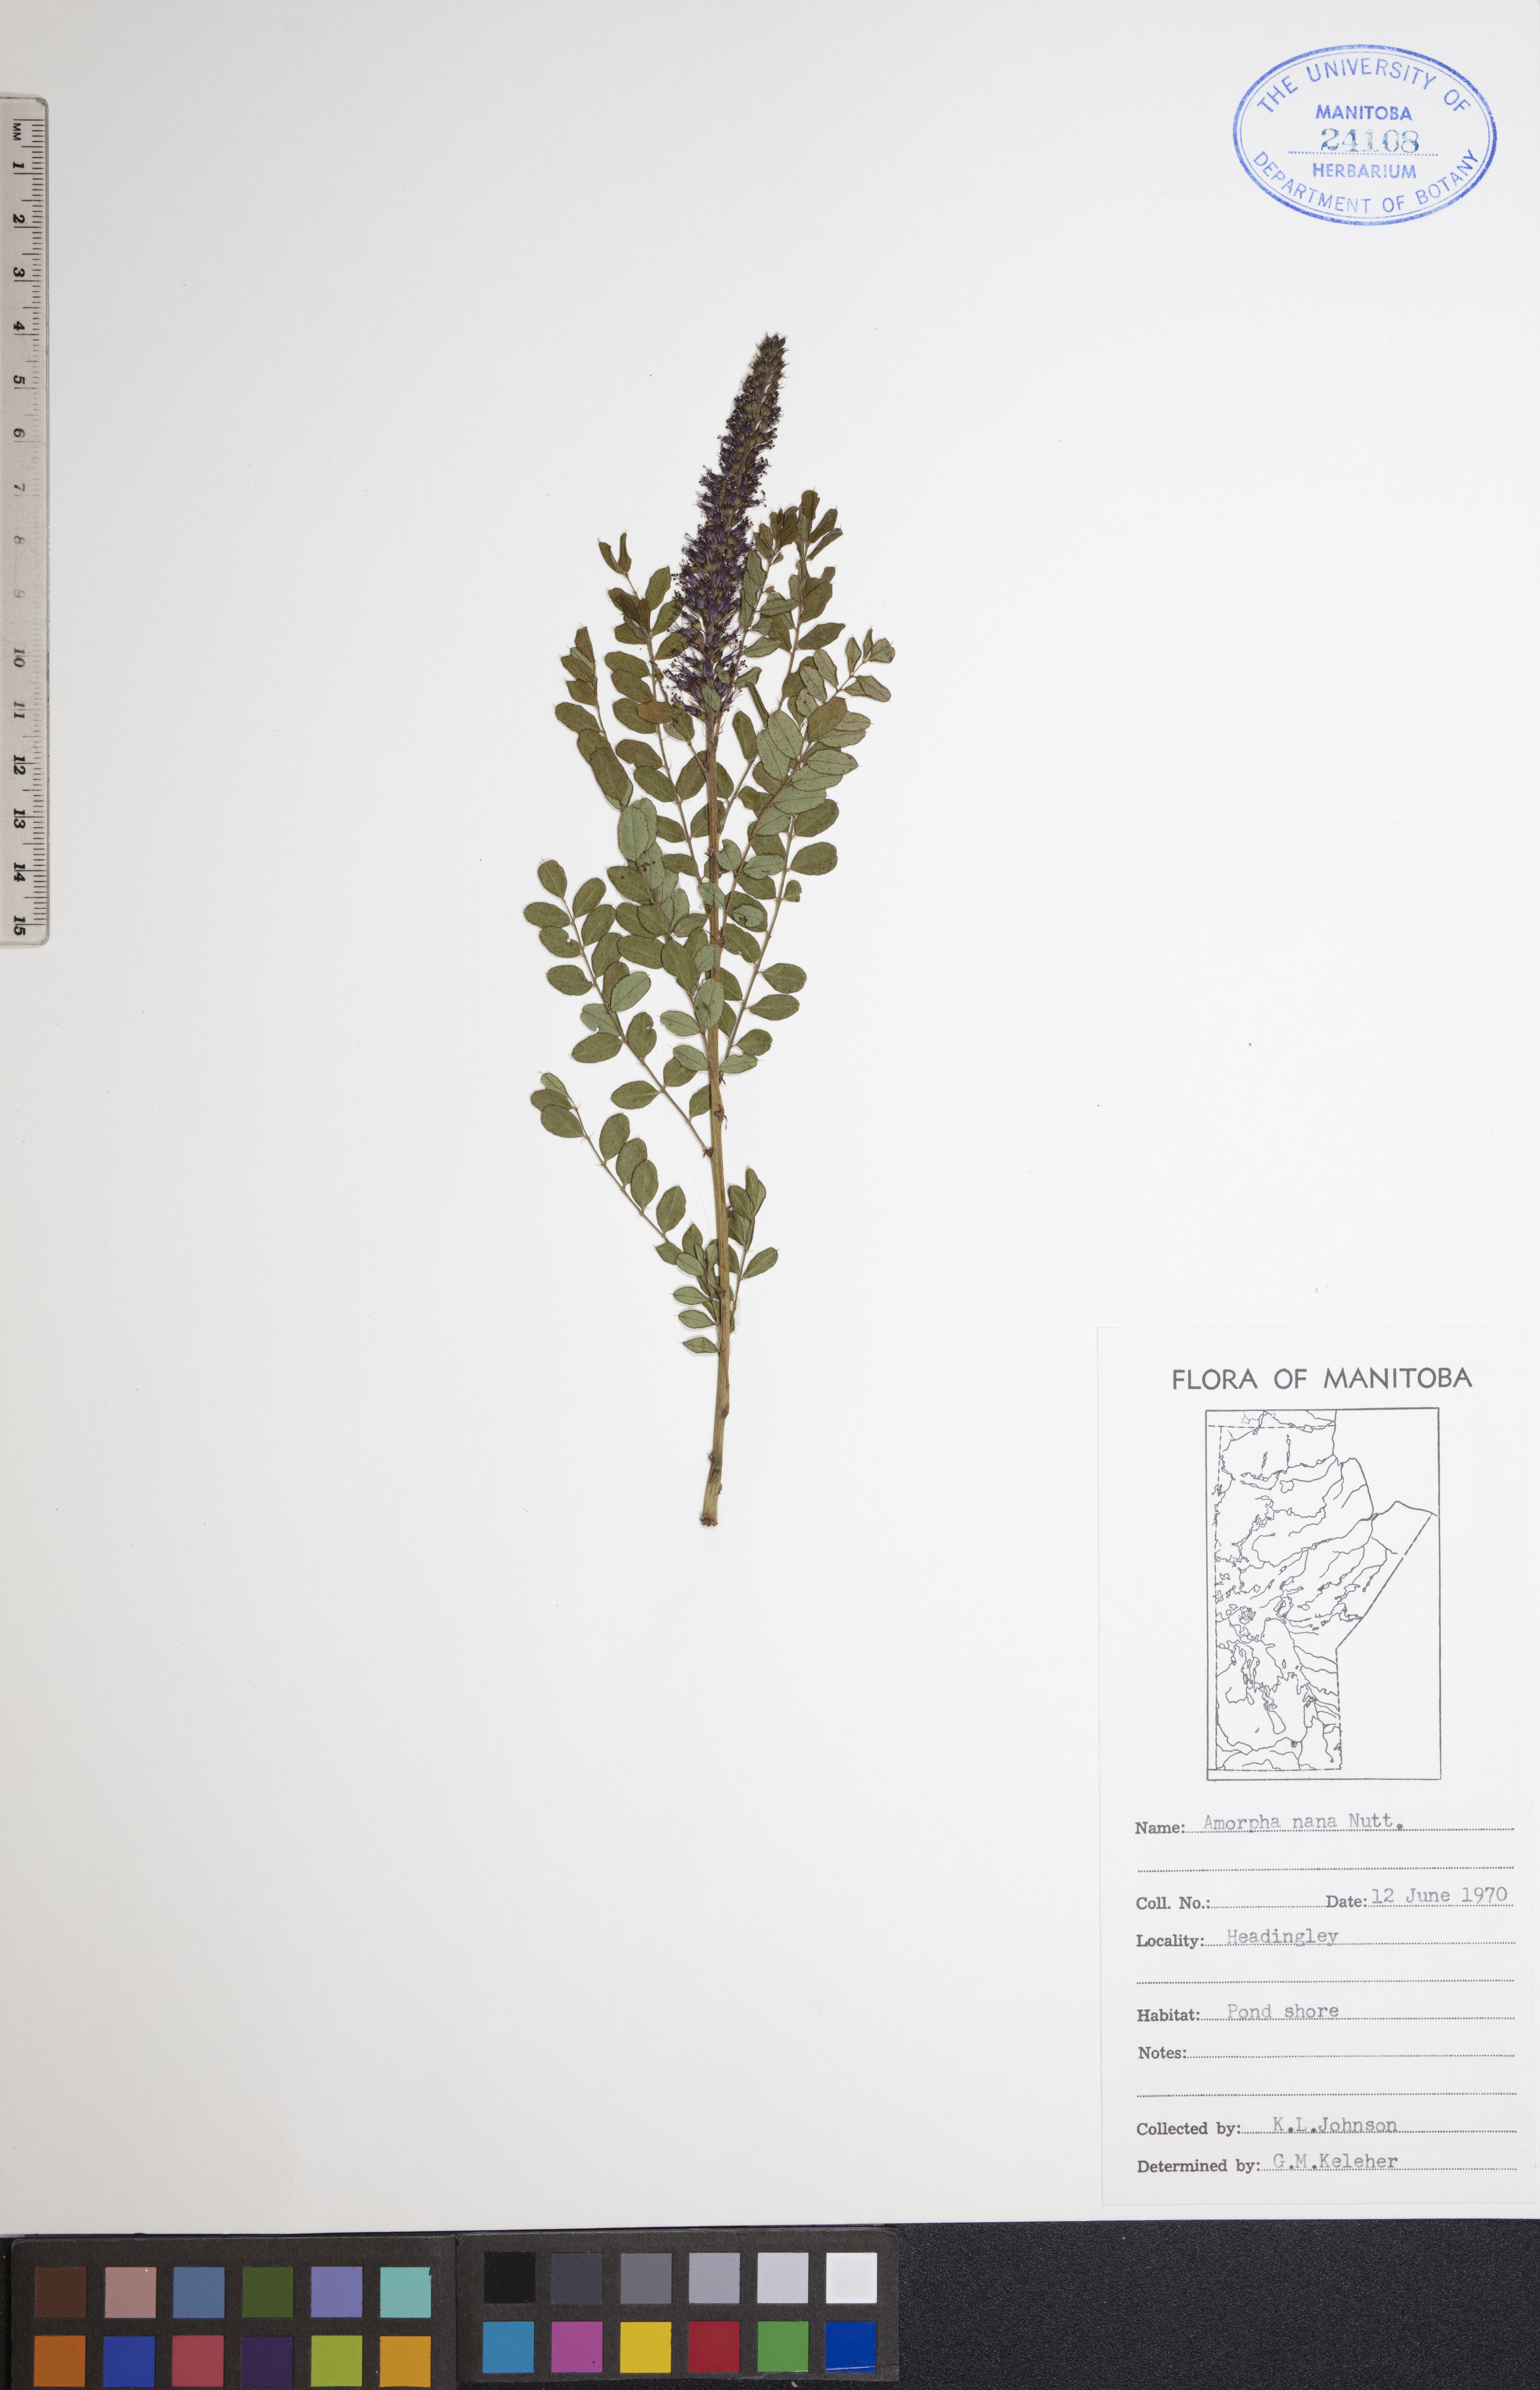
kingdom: Plantae
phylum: Tracheophyta
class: Magnoliopsida
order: Fabales
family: Fabaceae
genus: Amorpha
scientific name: Amorpha nana
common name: Fragrant false indigo
